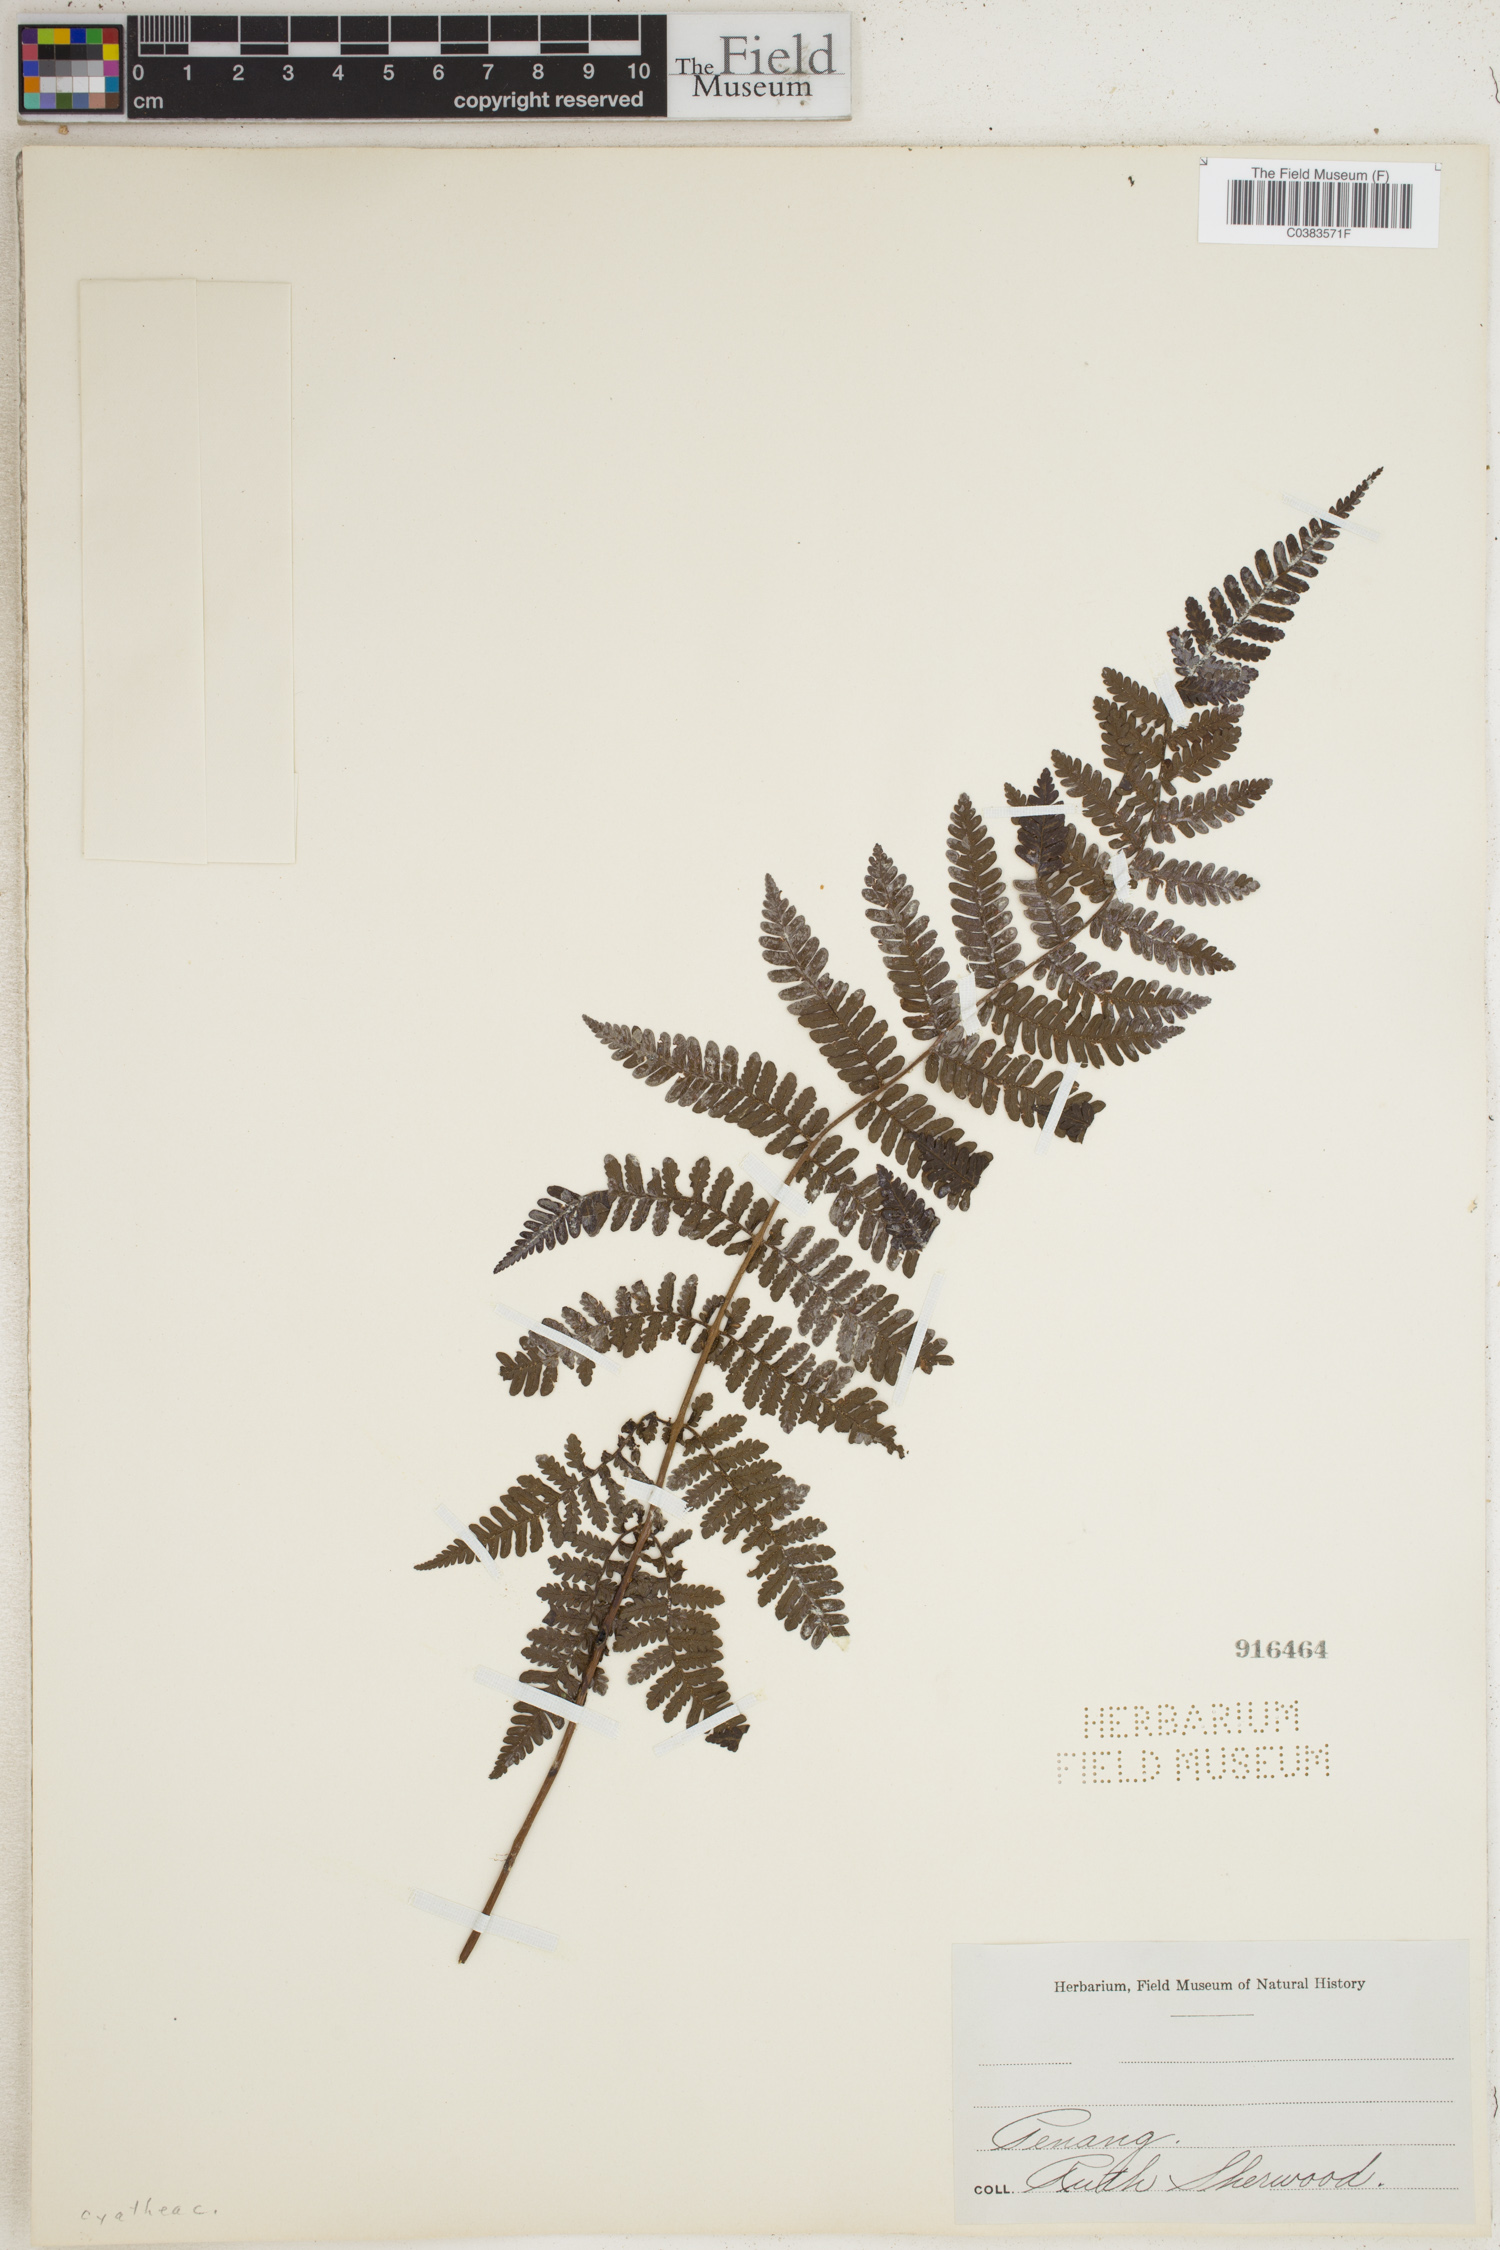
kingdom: Plantae
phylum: Tracheophyta
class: Polypodiopsida
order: Cyatheales
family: Cyatheaceae
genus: Cyathea
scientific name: Cyathea
